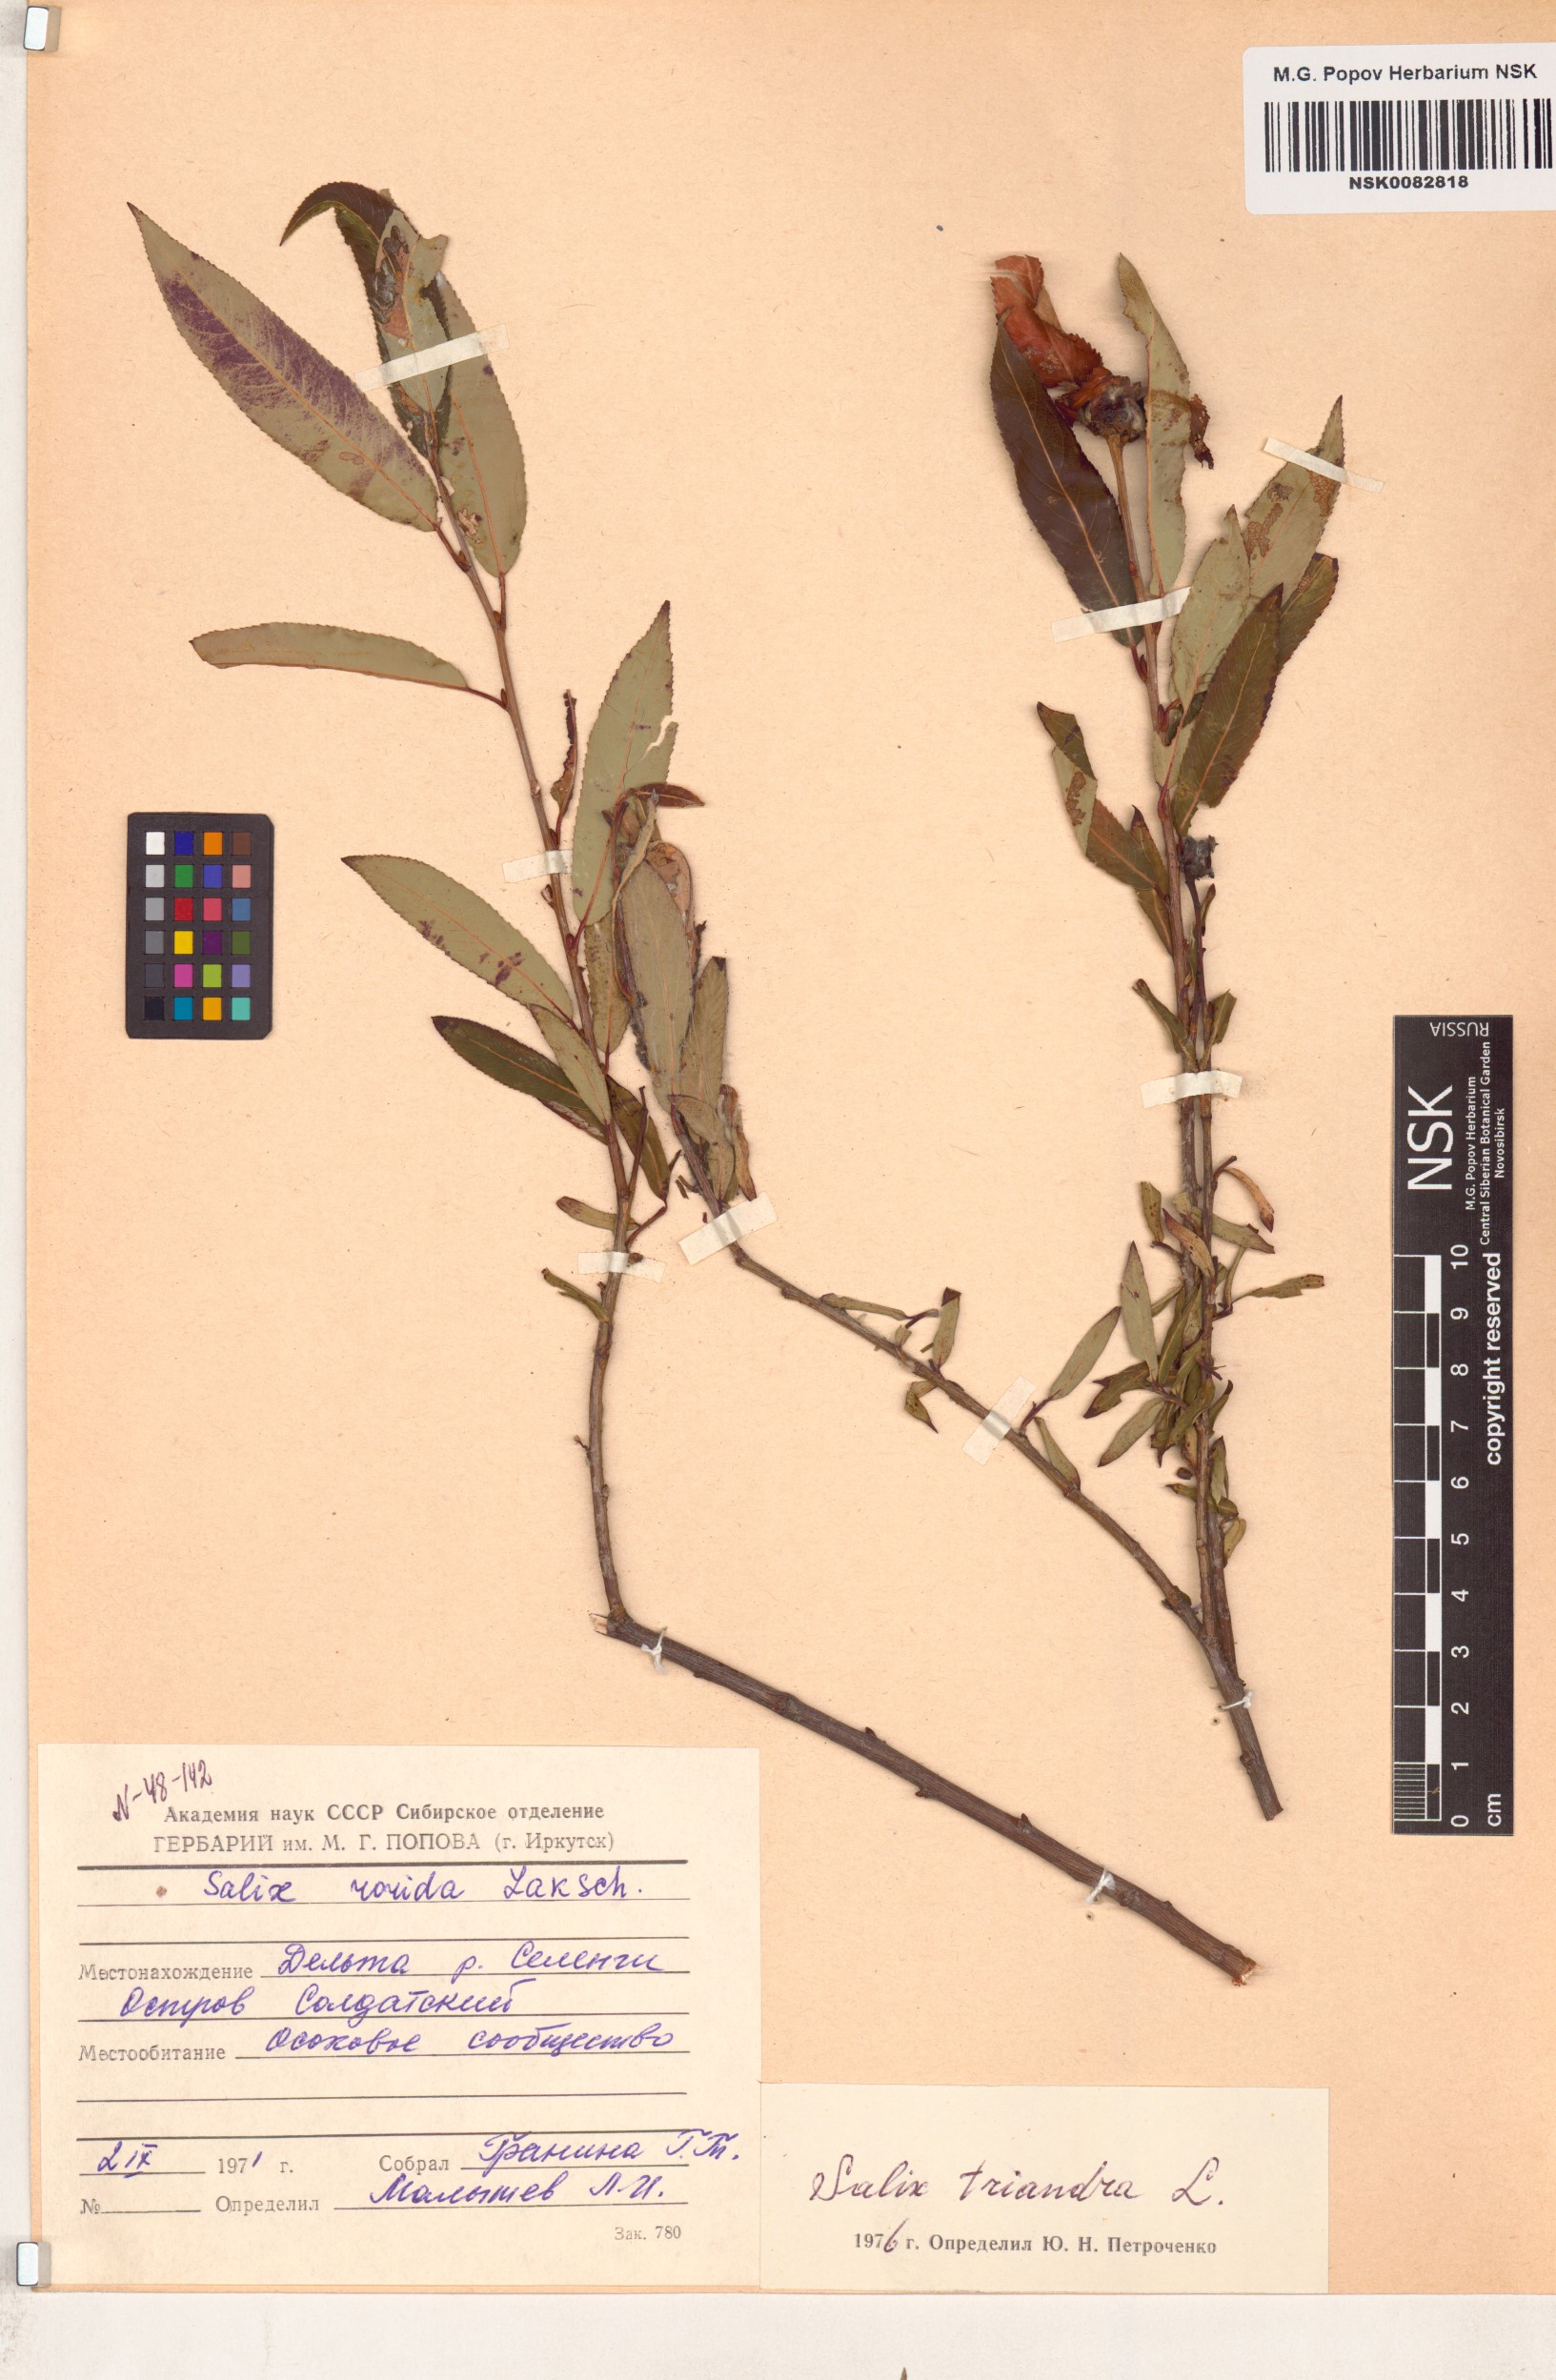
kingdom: Plantae
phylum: Tracheophyta
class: Magnoliopsida
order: Malpighiales
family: Salicaceae
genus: Salix
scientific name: Salix triandra
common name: Almond willow
